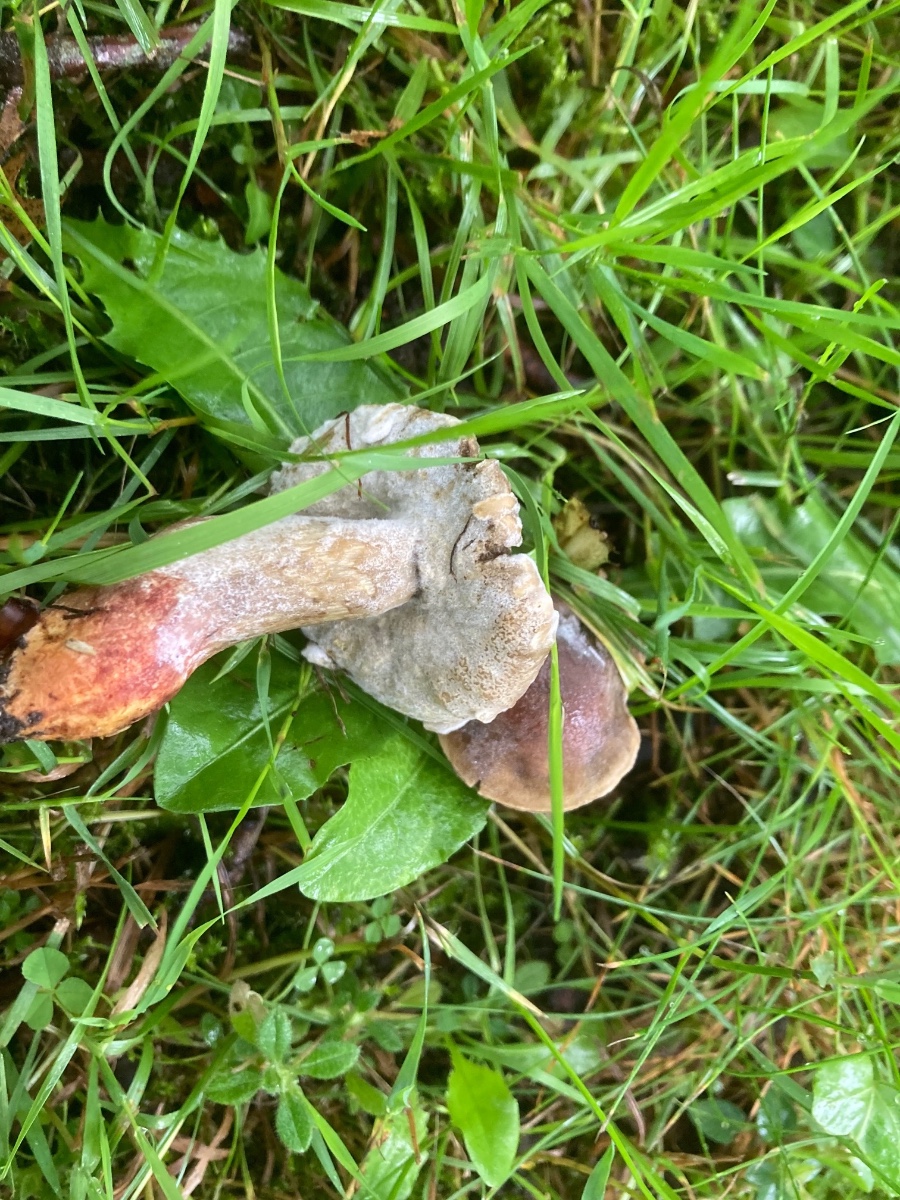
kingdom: Fungi
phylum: Ascomycota
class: Sordariomycetes
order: Hypocreales
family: Hypocreaceae
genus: Hypomyces
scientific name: Hypomyces microspermus
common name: dværgrørhat-snylteskorpe
